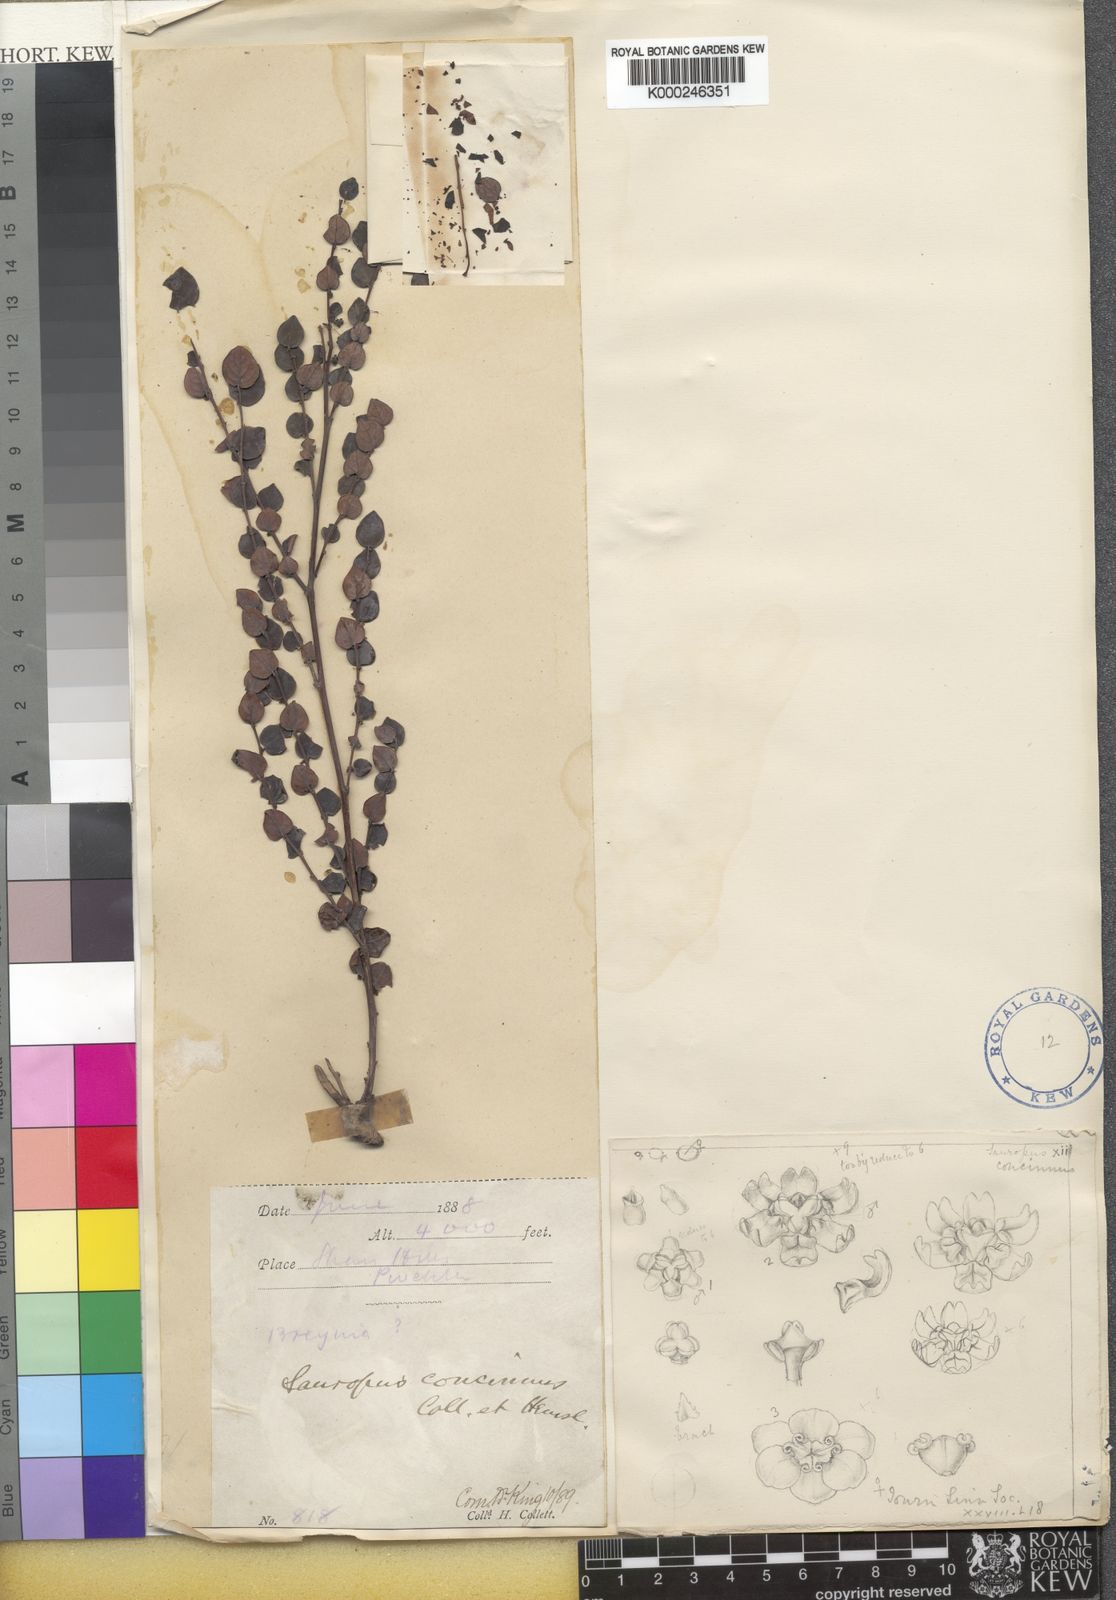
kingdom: Animalia
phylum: Chordata
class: Amphibia
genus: Sauropus
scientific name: Sauropus
